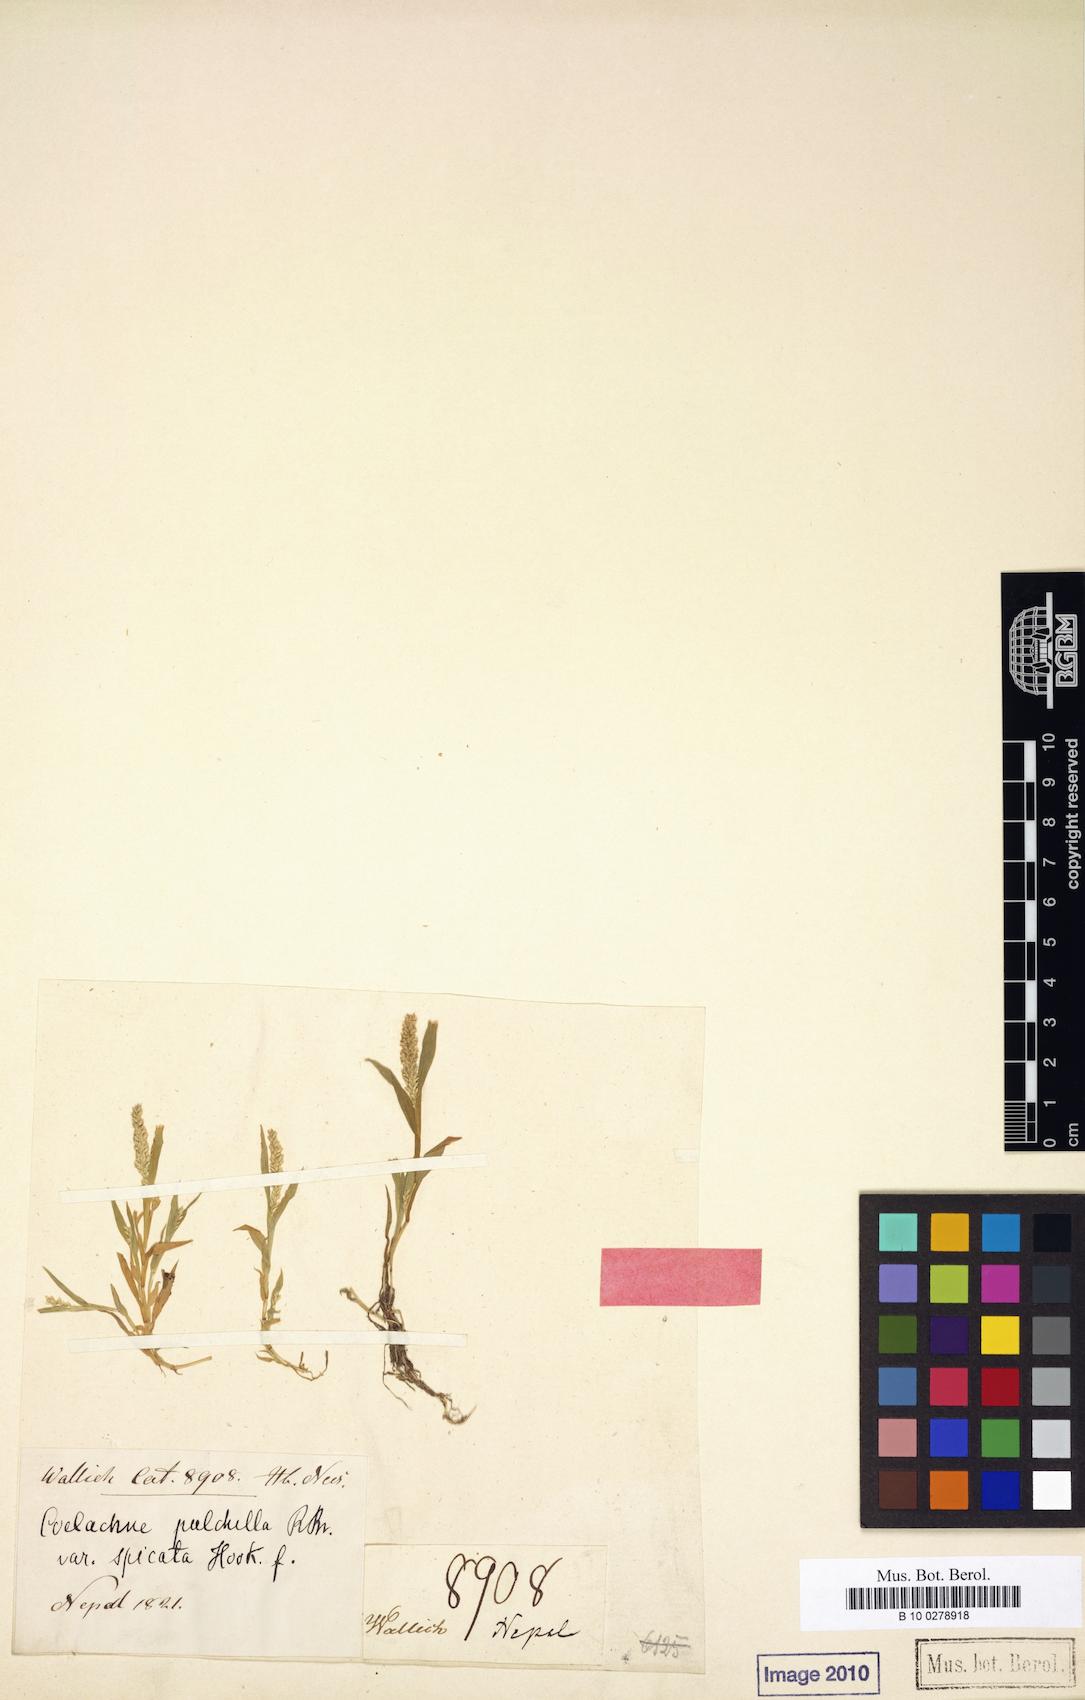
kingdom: Plantae
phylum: Tracheophyta
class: Liliopsida
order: Poales
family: Poaceae
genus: Coelachne
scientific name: Coelachne simpliciuscula
